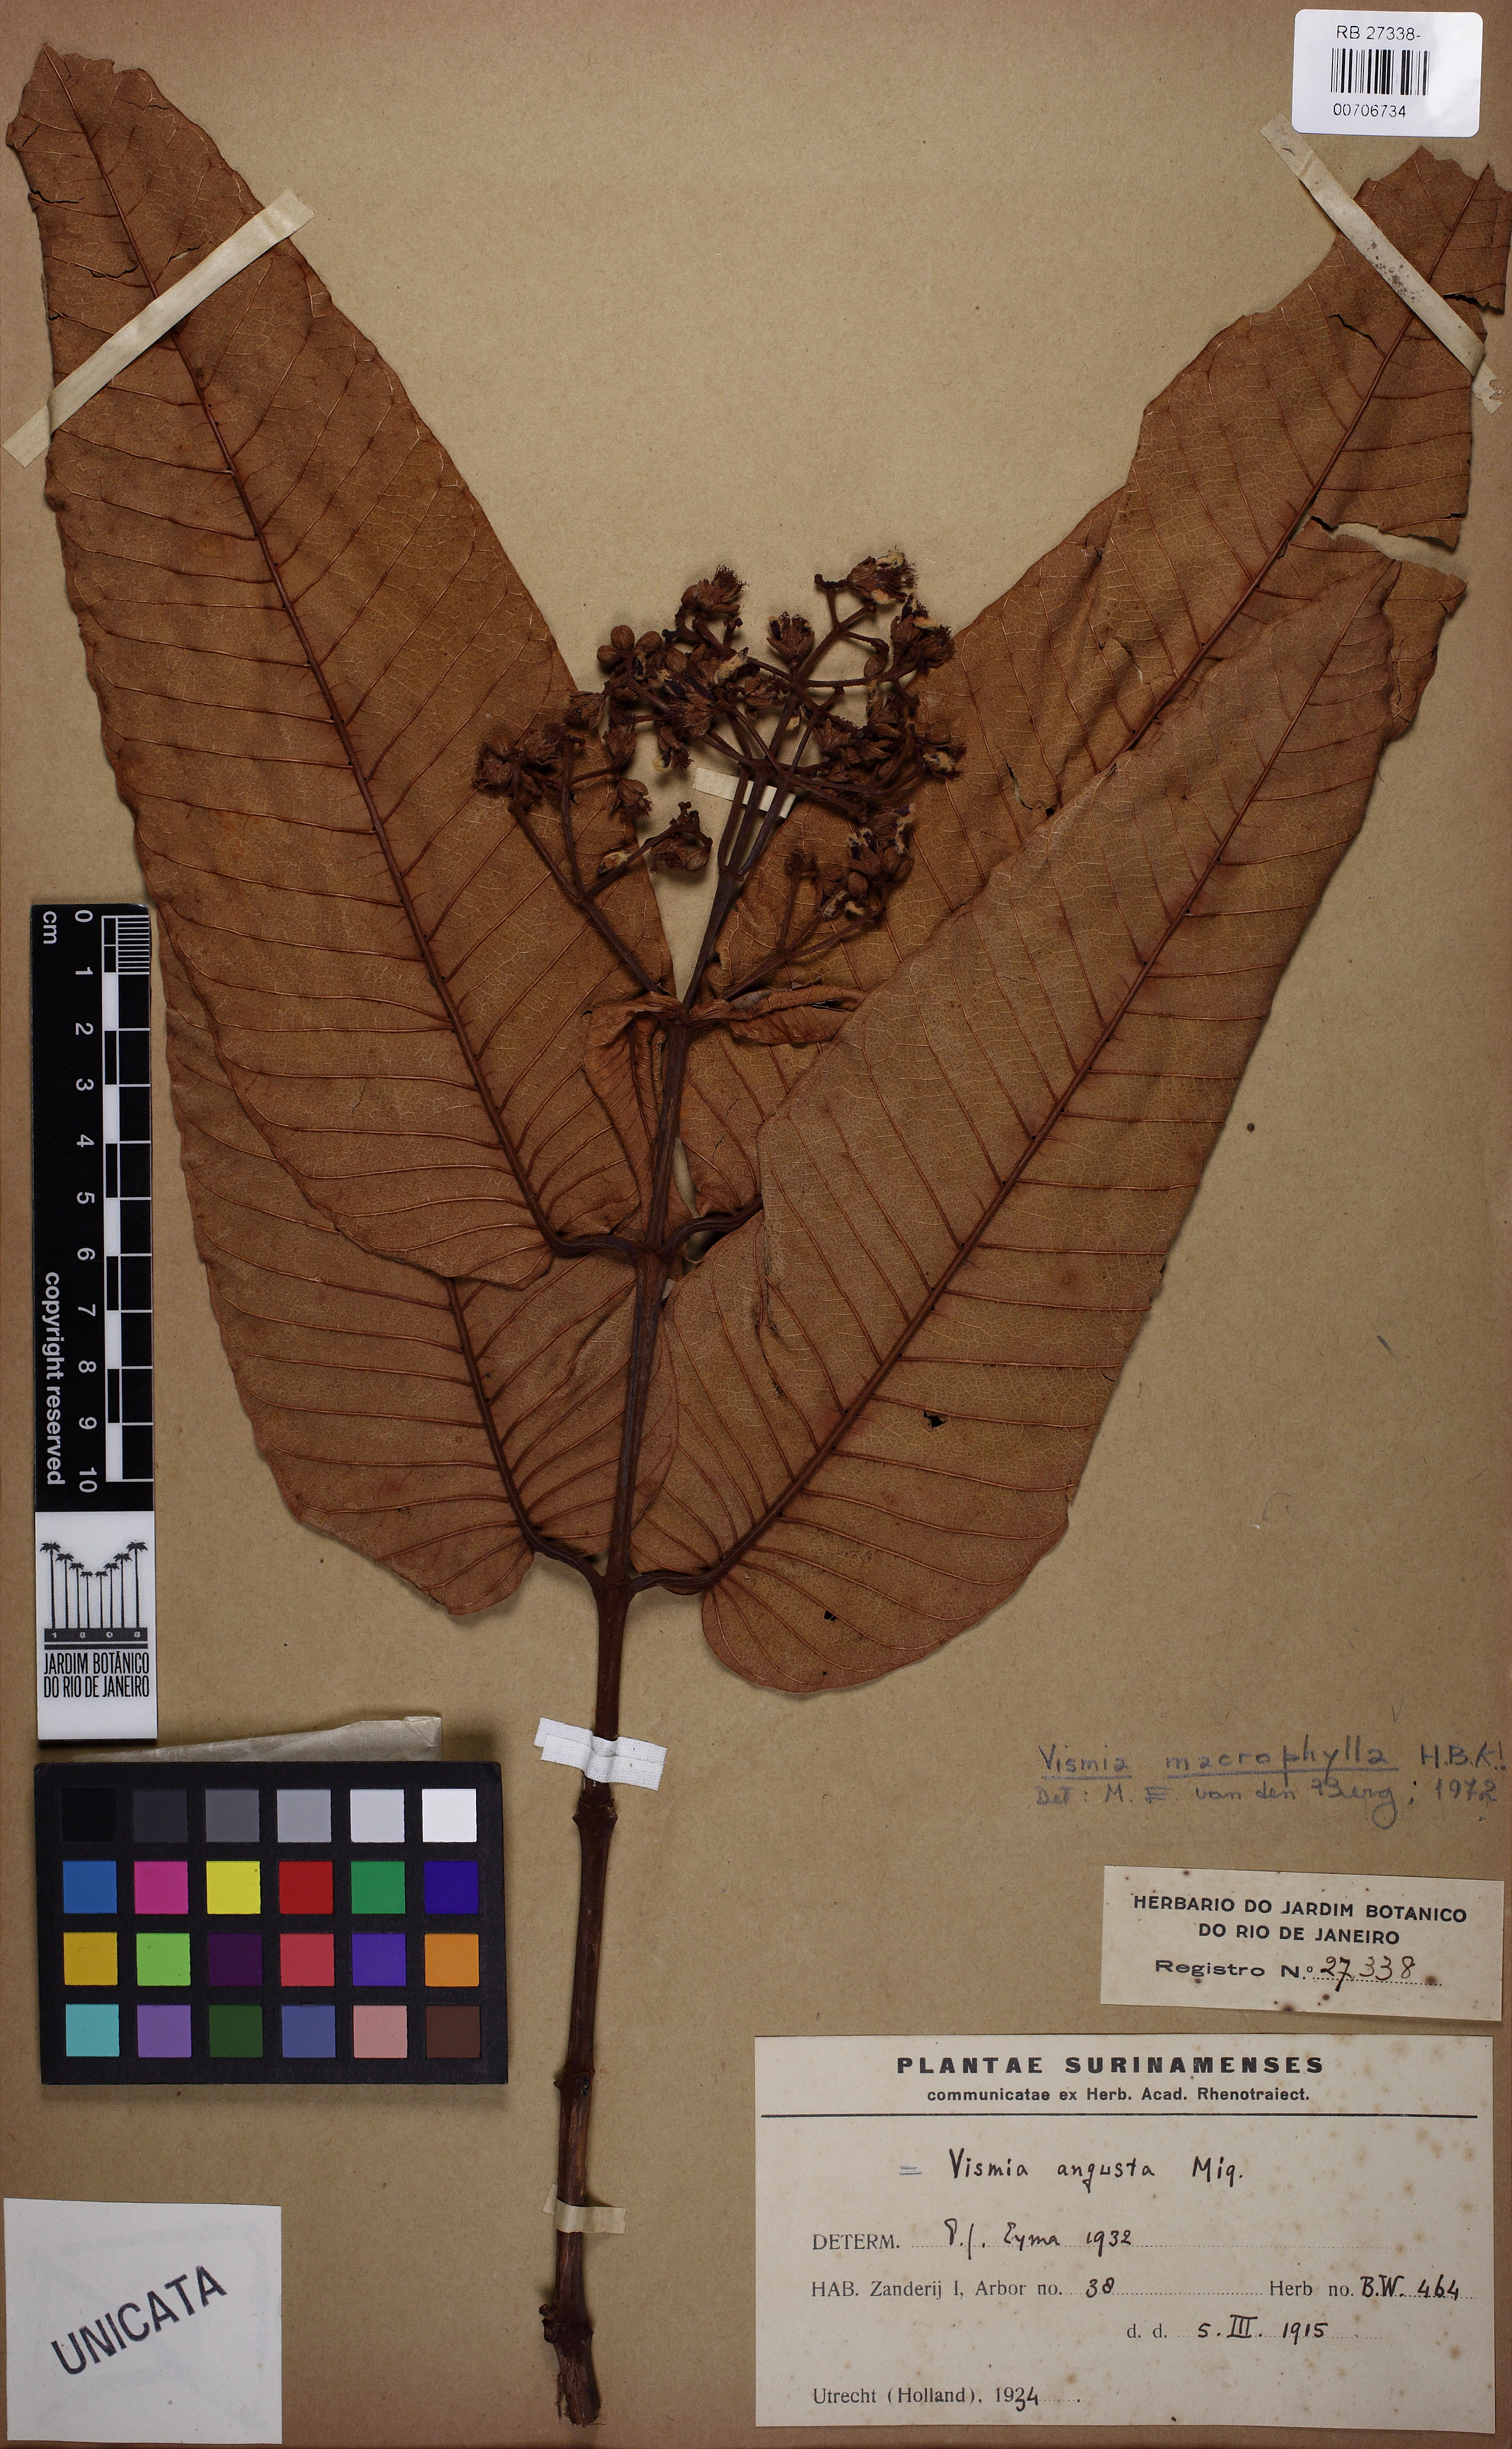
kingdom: Plantae
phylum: Tracheophyta
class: Magnoliopsida
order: Malpighiales
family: Hypericaceae
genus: Vismia
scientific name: Vismia macrophylla
